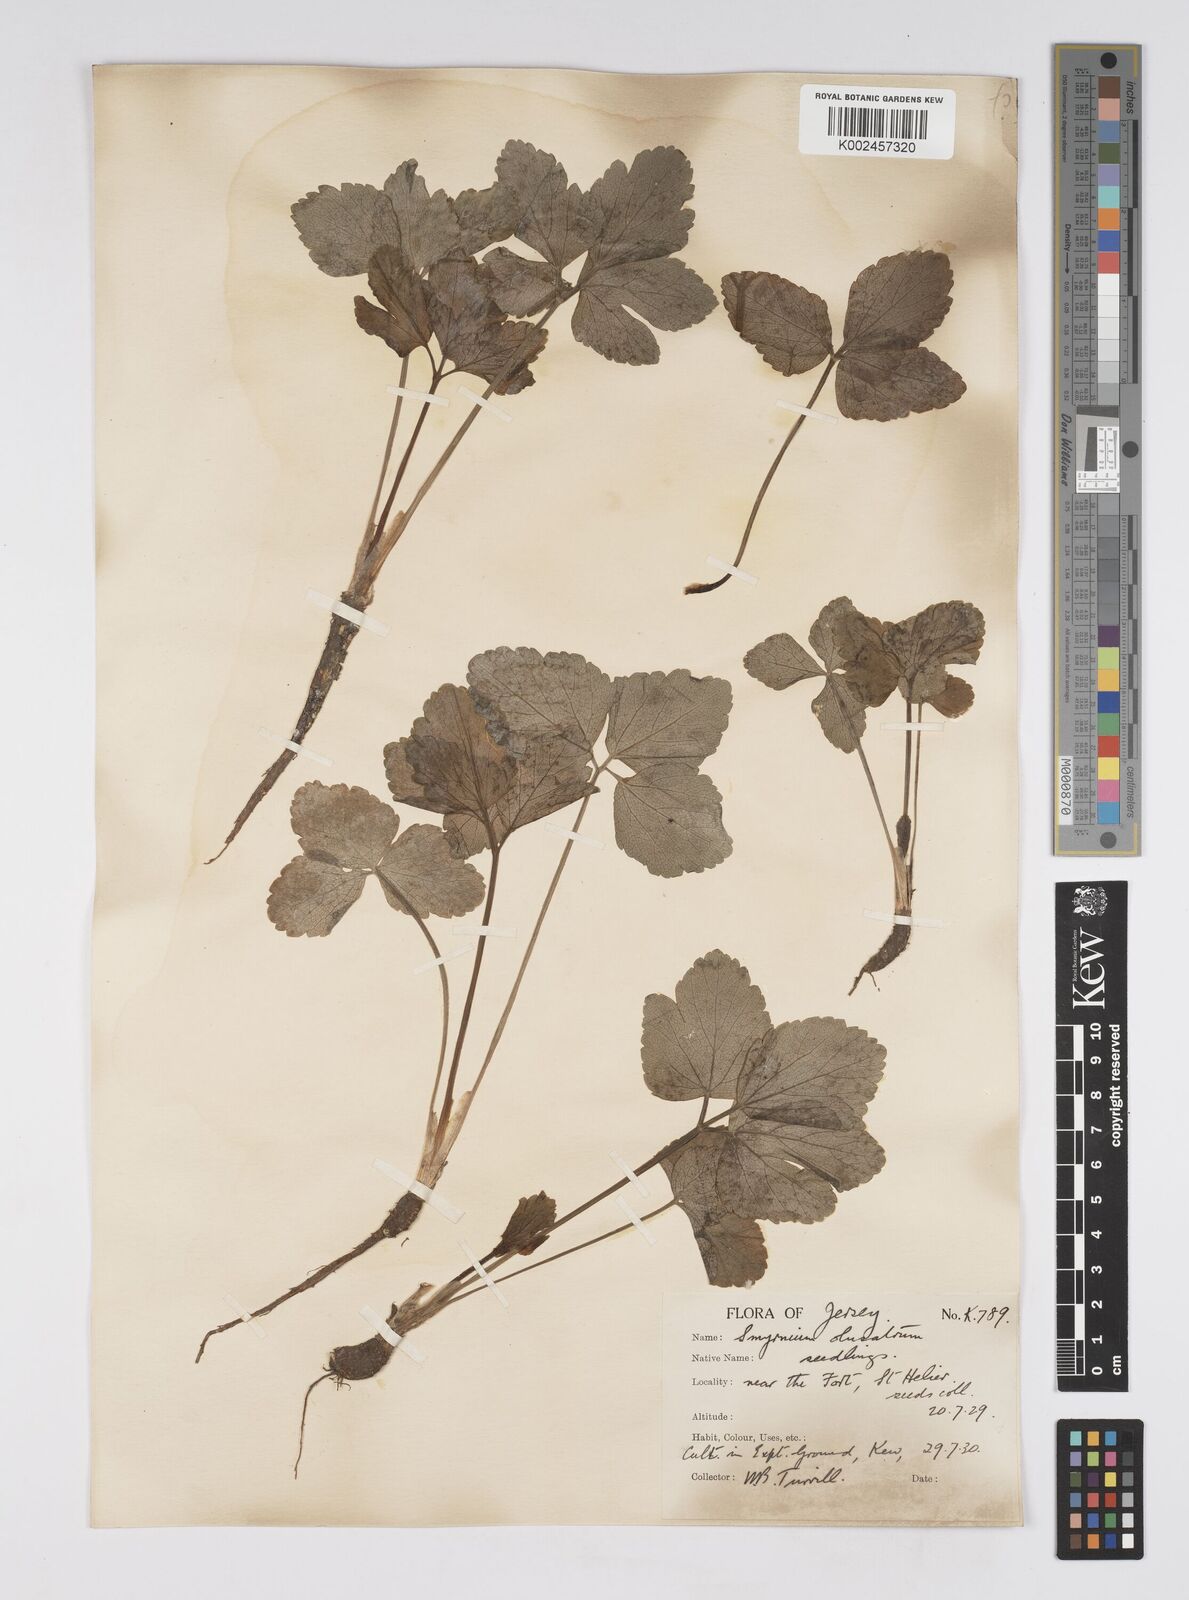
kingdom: Plantae
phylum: Tracheophyta
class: Magnoliopsida
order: Apiales
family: Apiaceae
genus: Smyrnium
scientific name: Smyrnium olusatrum
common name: Alexanders
